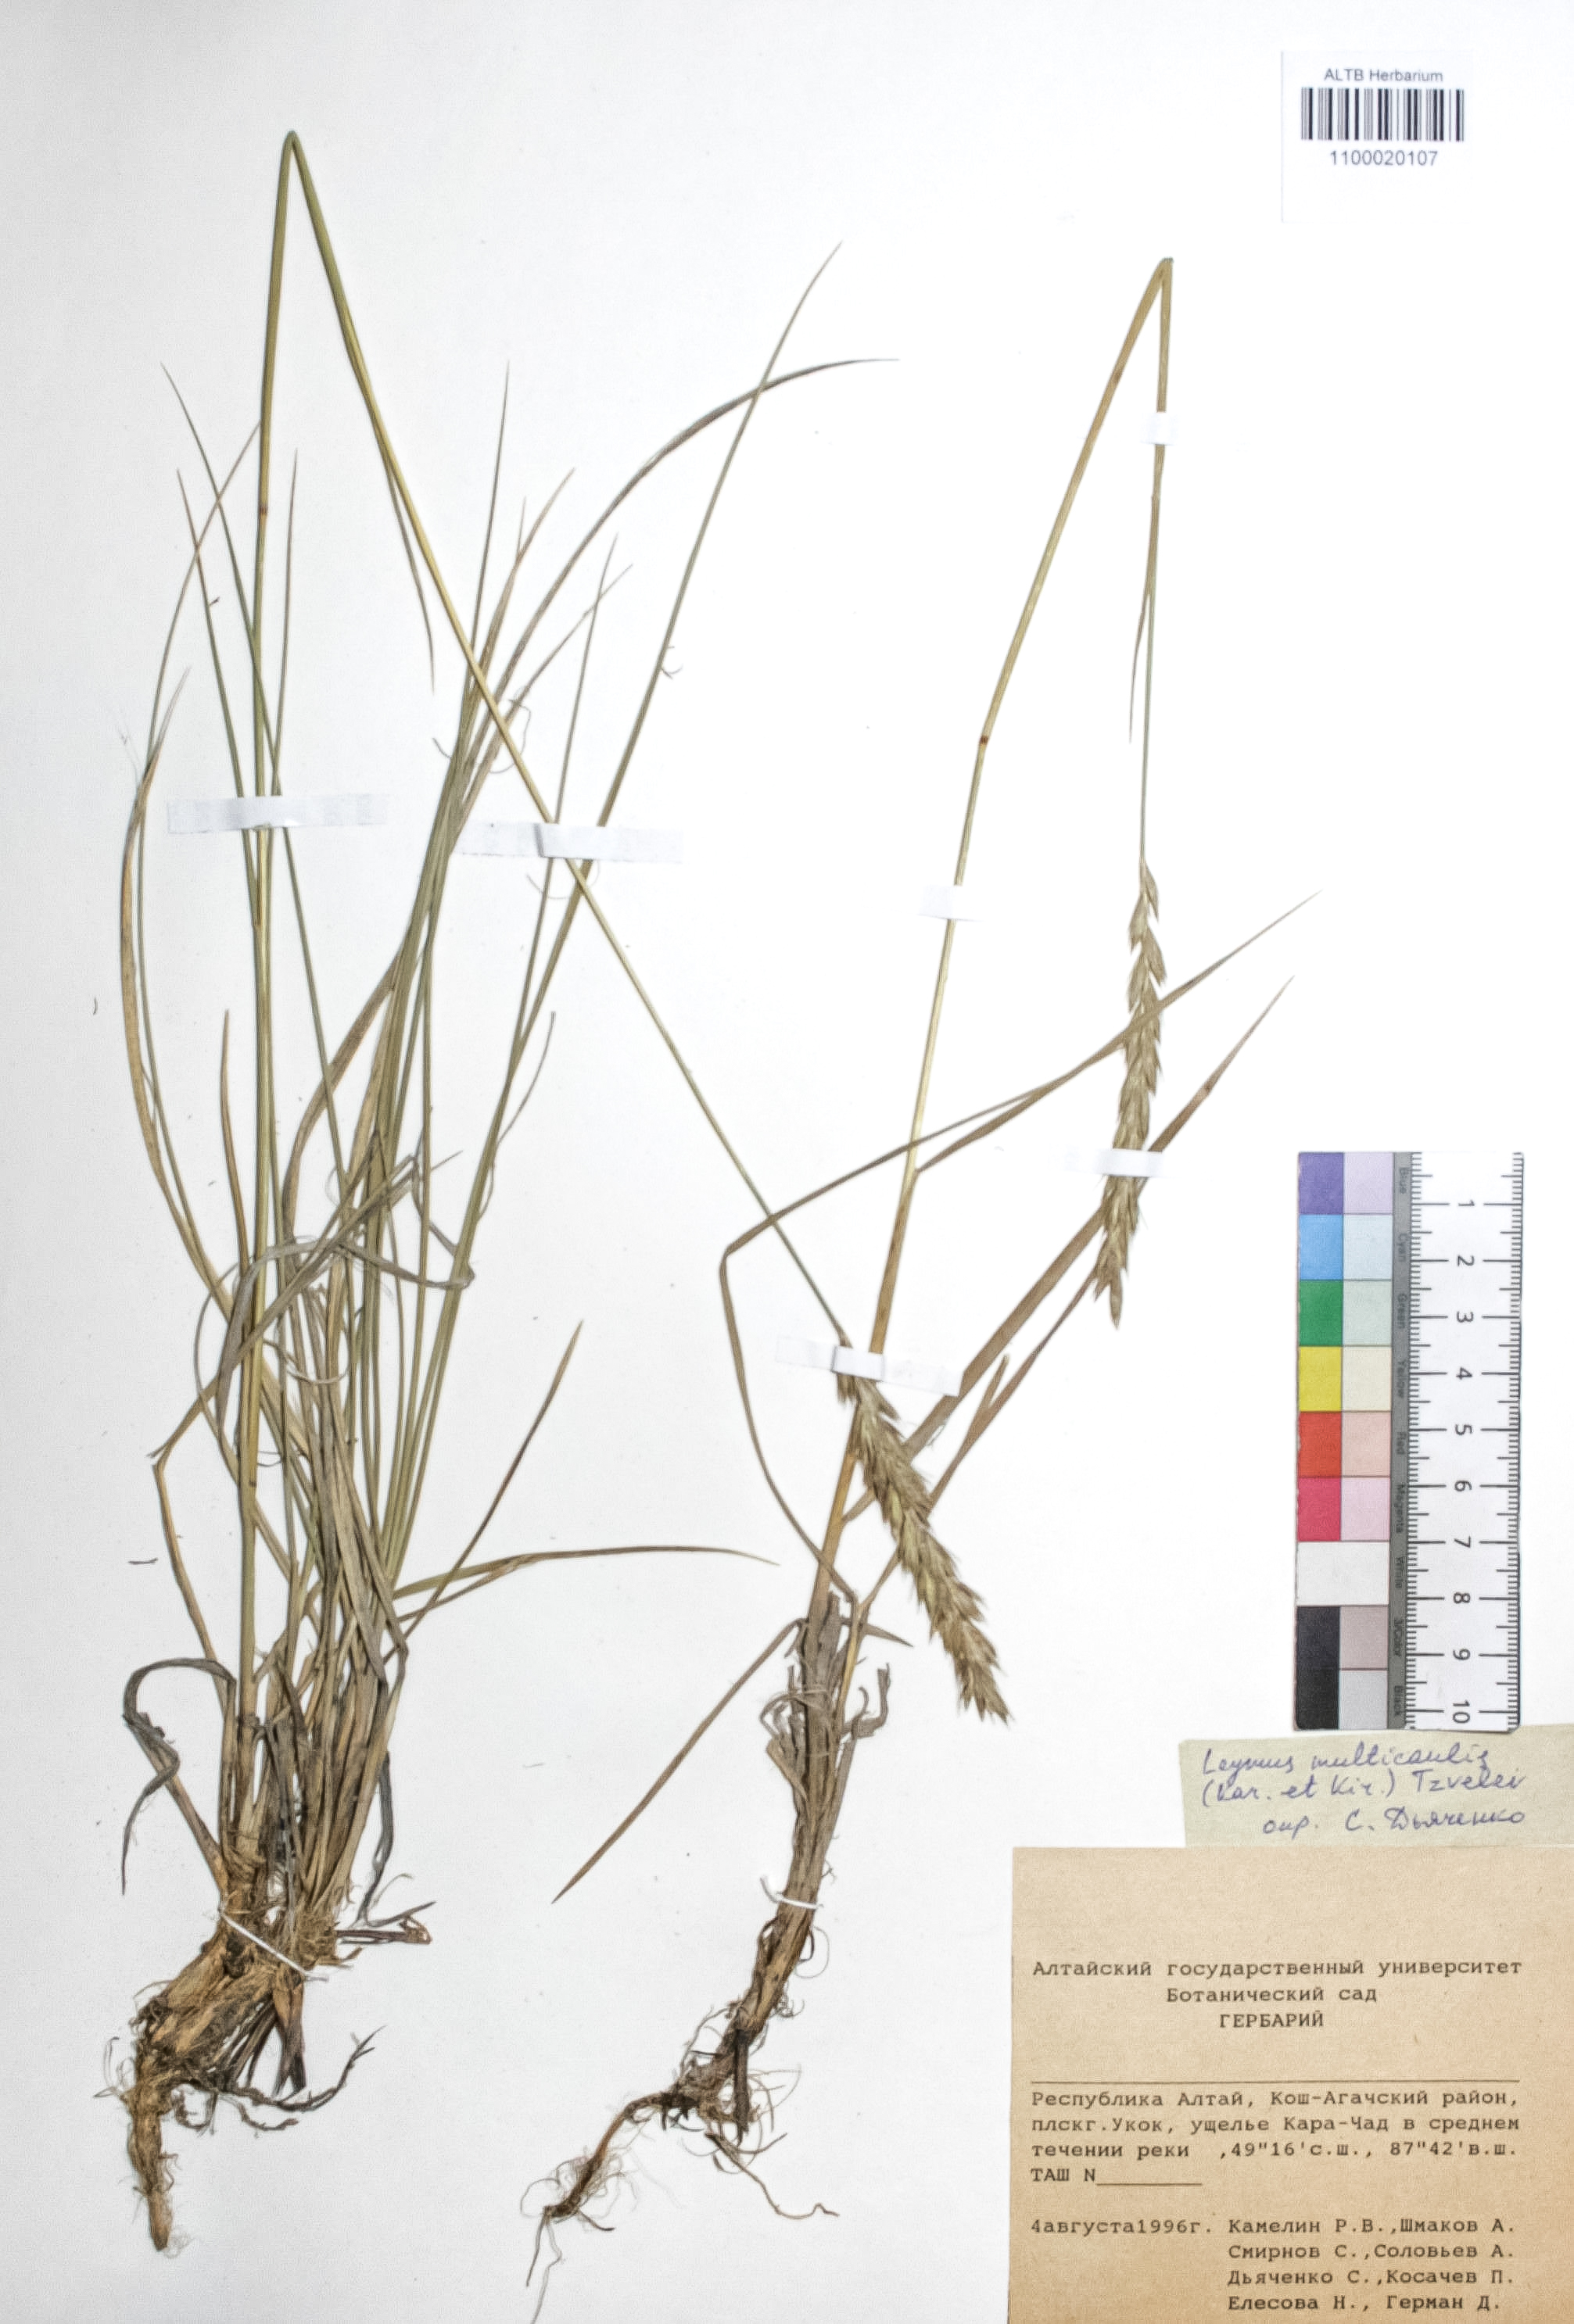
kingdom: Plantae
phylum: Tracheophyta
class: Liliopsida
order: Poales
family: Poaceae
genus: Leymus
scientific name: Leymus multicaulis
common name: Manystem wildrye
